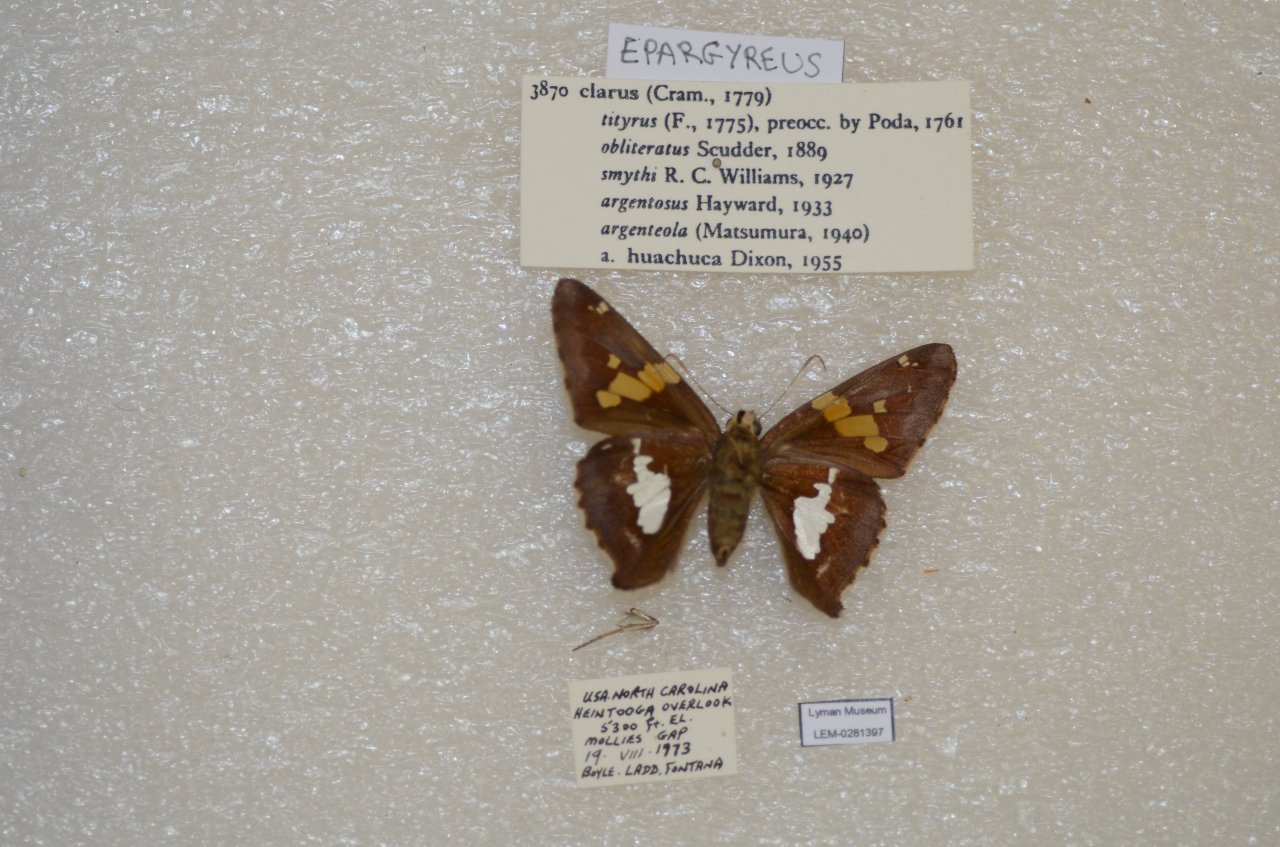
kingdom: Animalia
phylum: Arthropoda
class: Insecta
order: Lepidoptera
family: Hesperiidae
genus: Epargyreus
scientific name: Epargyreus clarus
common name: Silver-spotted Skipper
